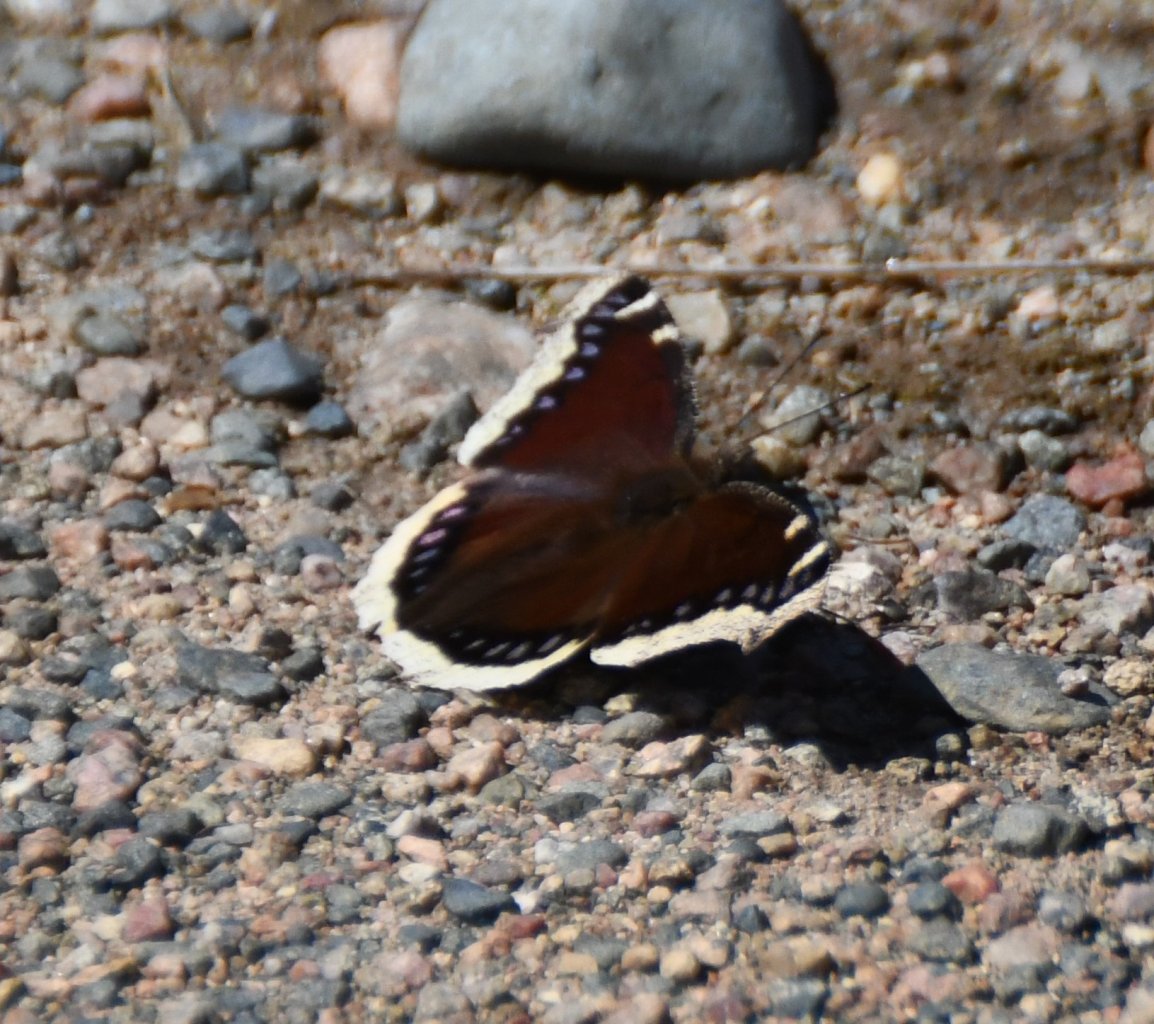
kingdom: Animalia
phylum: Arthropoda
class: Insecta
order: Lepidoptera
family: Nymphalidae
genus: Nymphalis
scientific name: Nymphalis antiopa
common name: Mourning Cloak
